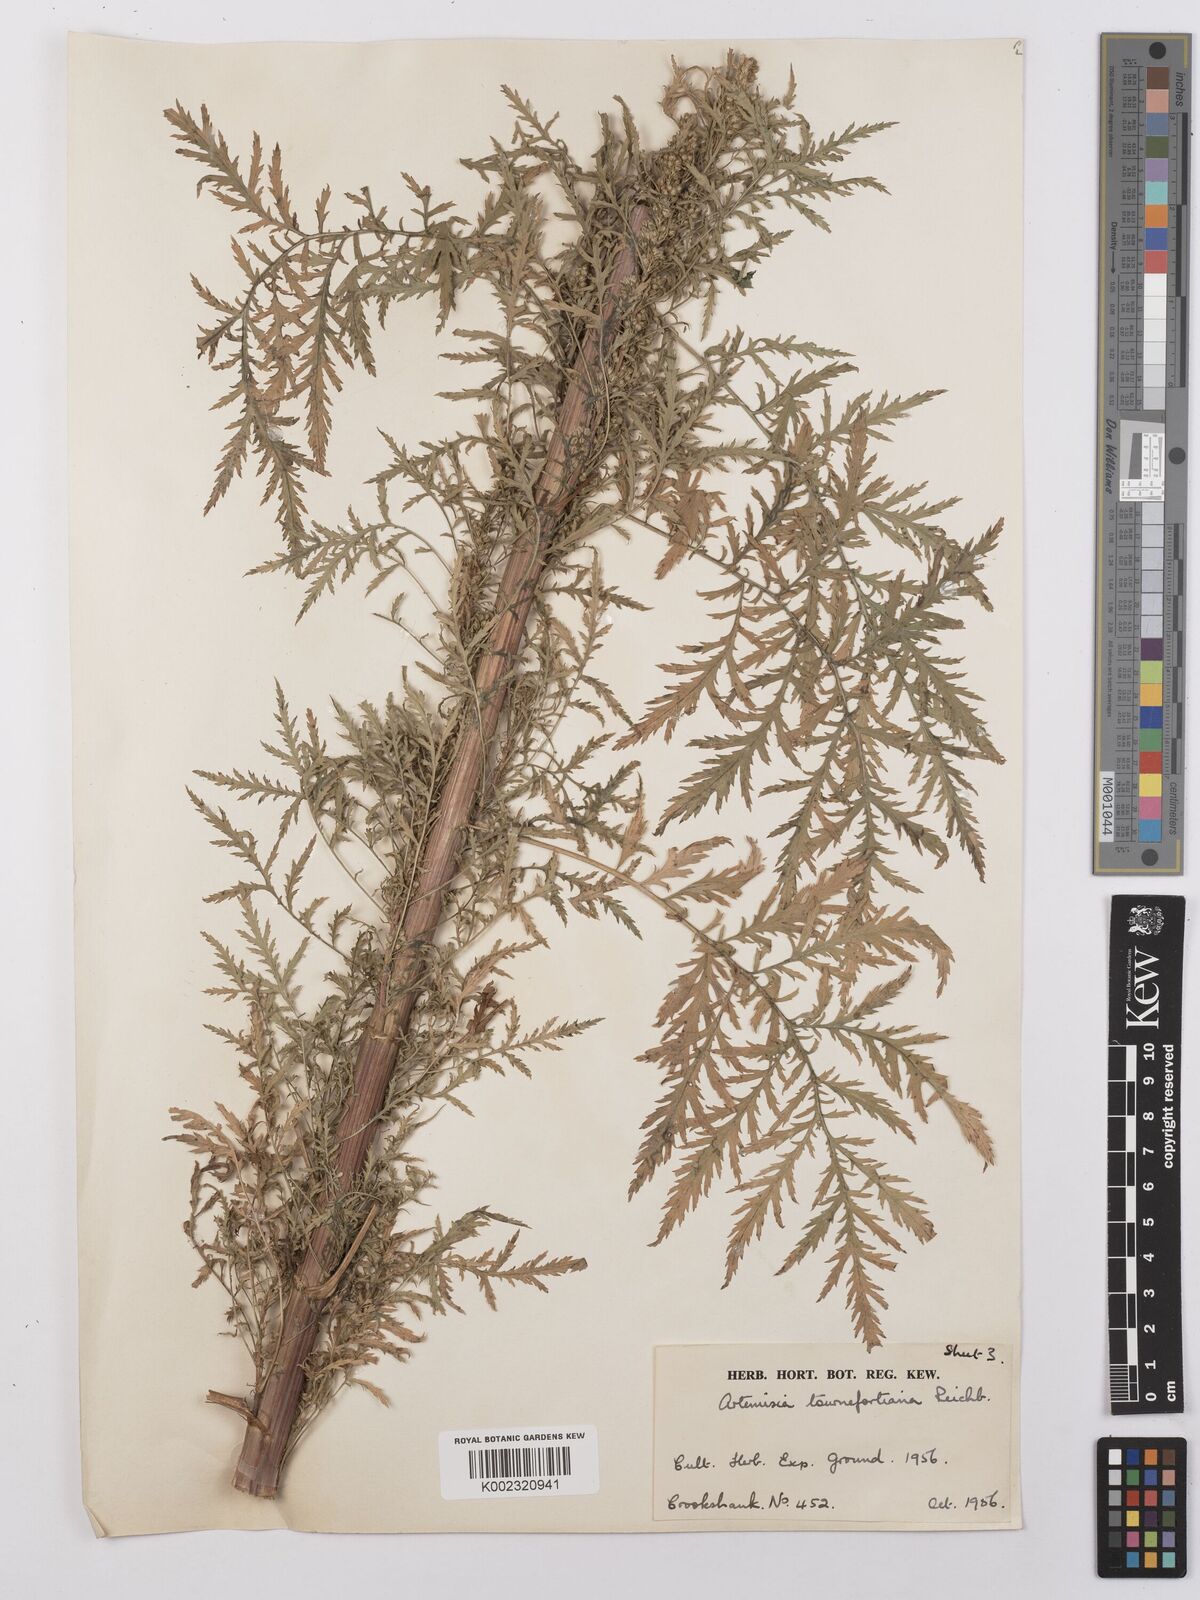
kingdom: Plantae
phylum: Tracheophyta
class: Magnoliopsida
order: Asterales
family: Asteraceae
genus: Artemisia
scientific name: Artemisia tournefortiana
